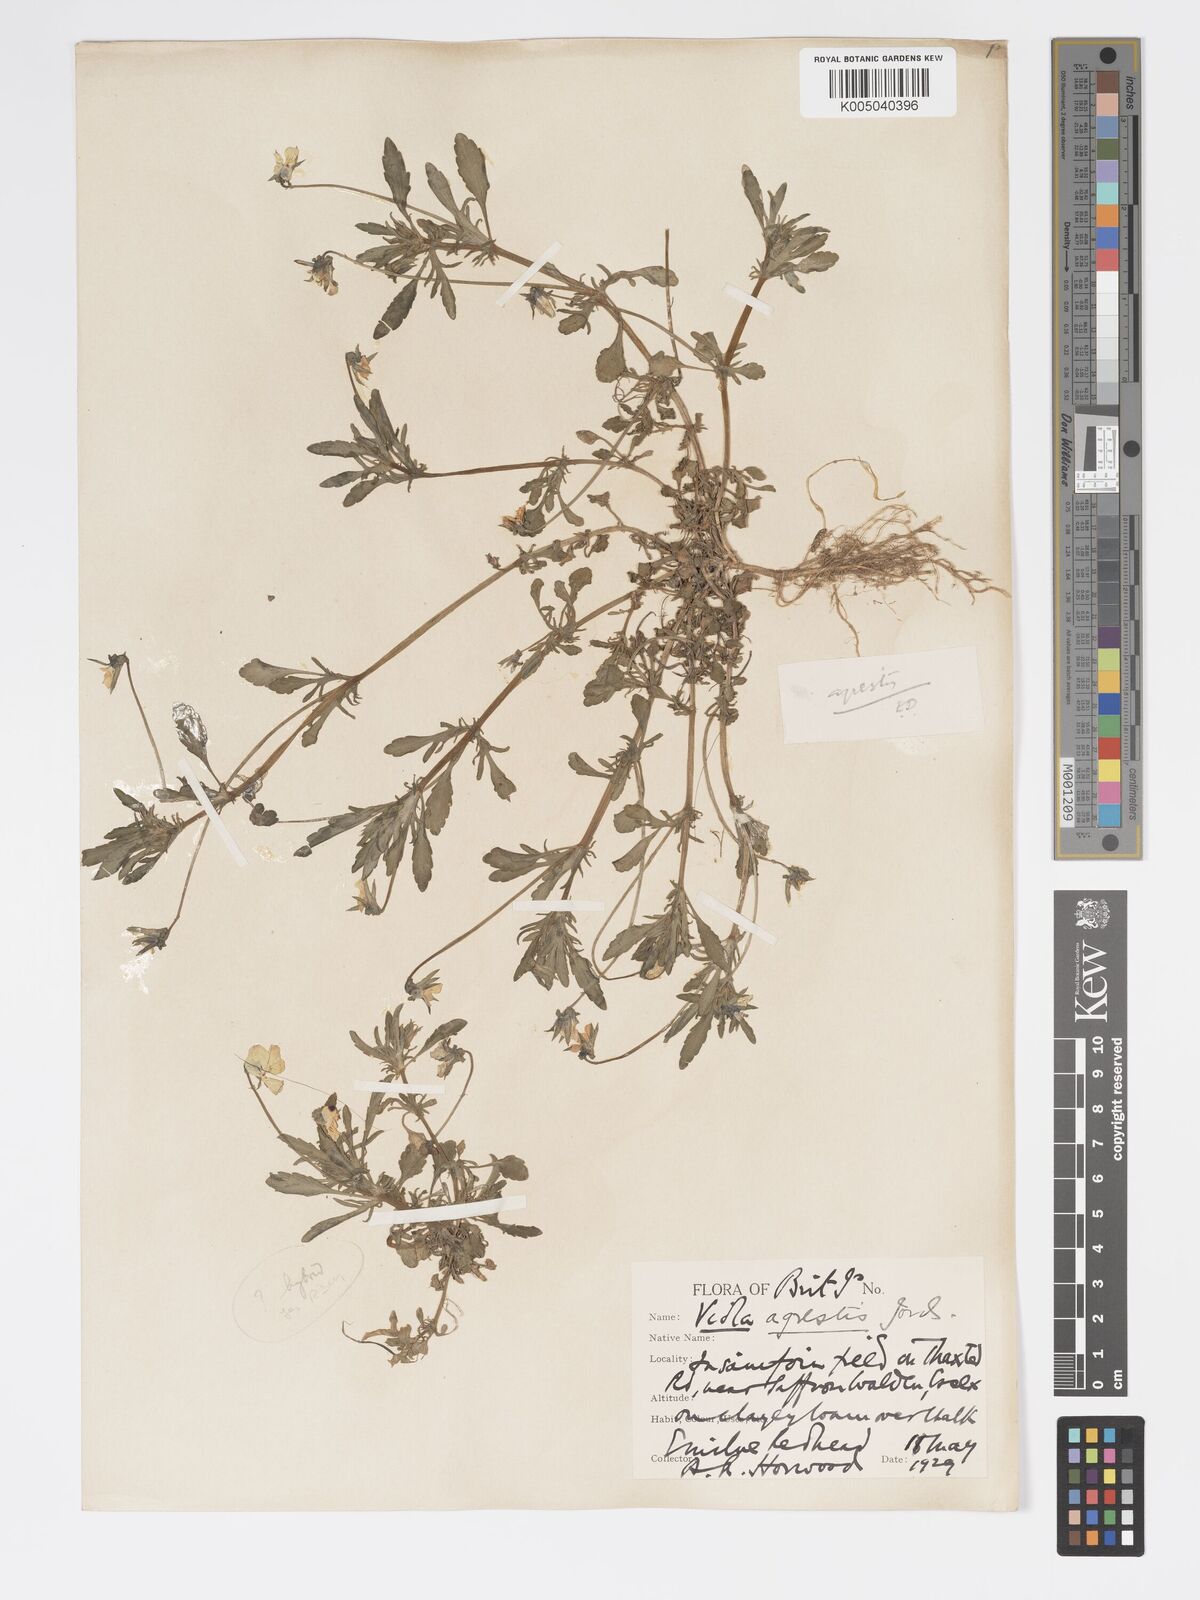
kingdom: Plantae
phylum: Tracheophyta
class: Magnoliopsida
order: Malpighiales
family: Violaceae
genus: Viola
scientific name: Viola arvensis
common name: Field pansy
